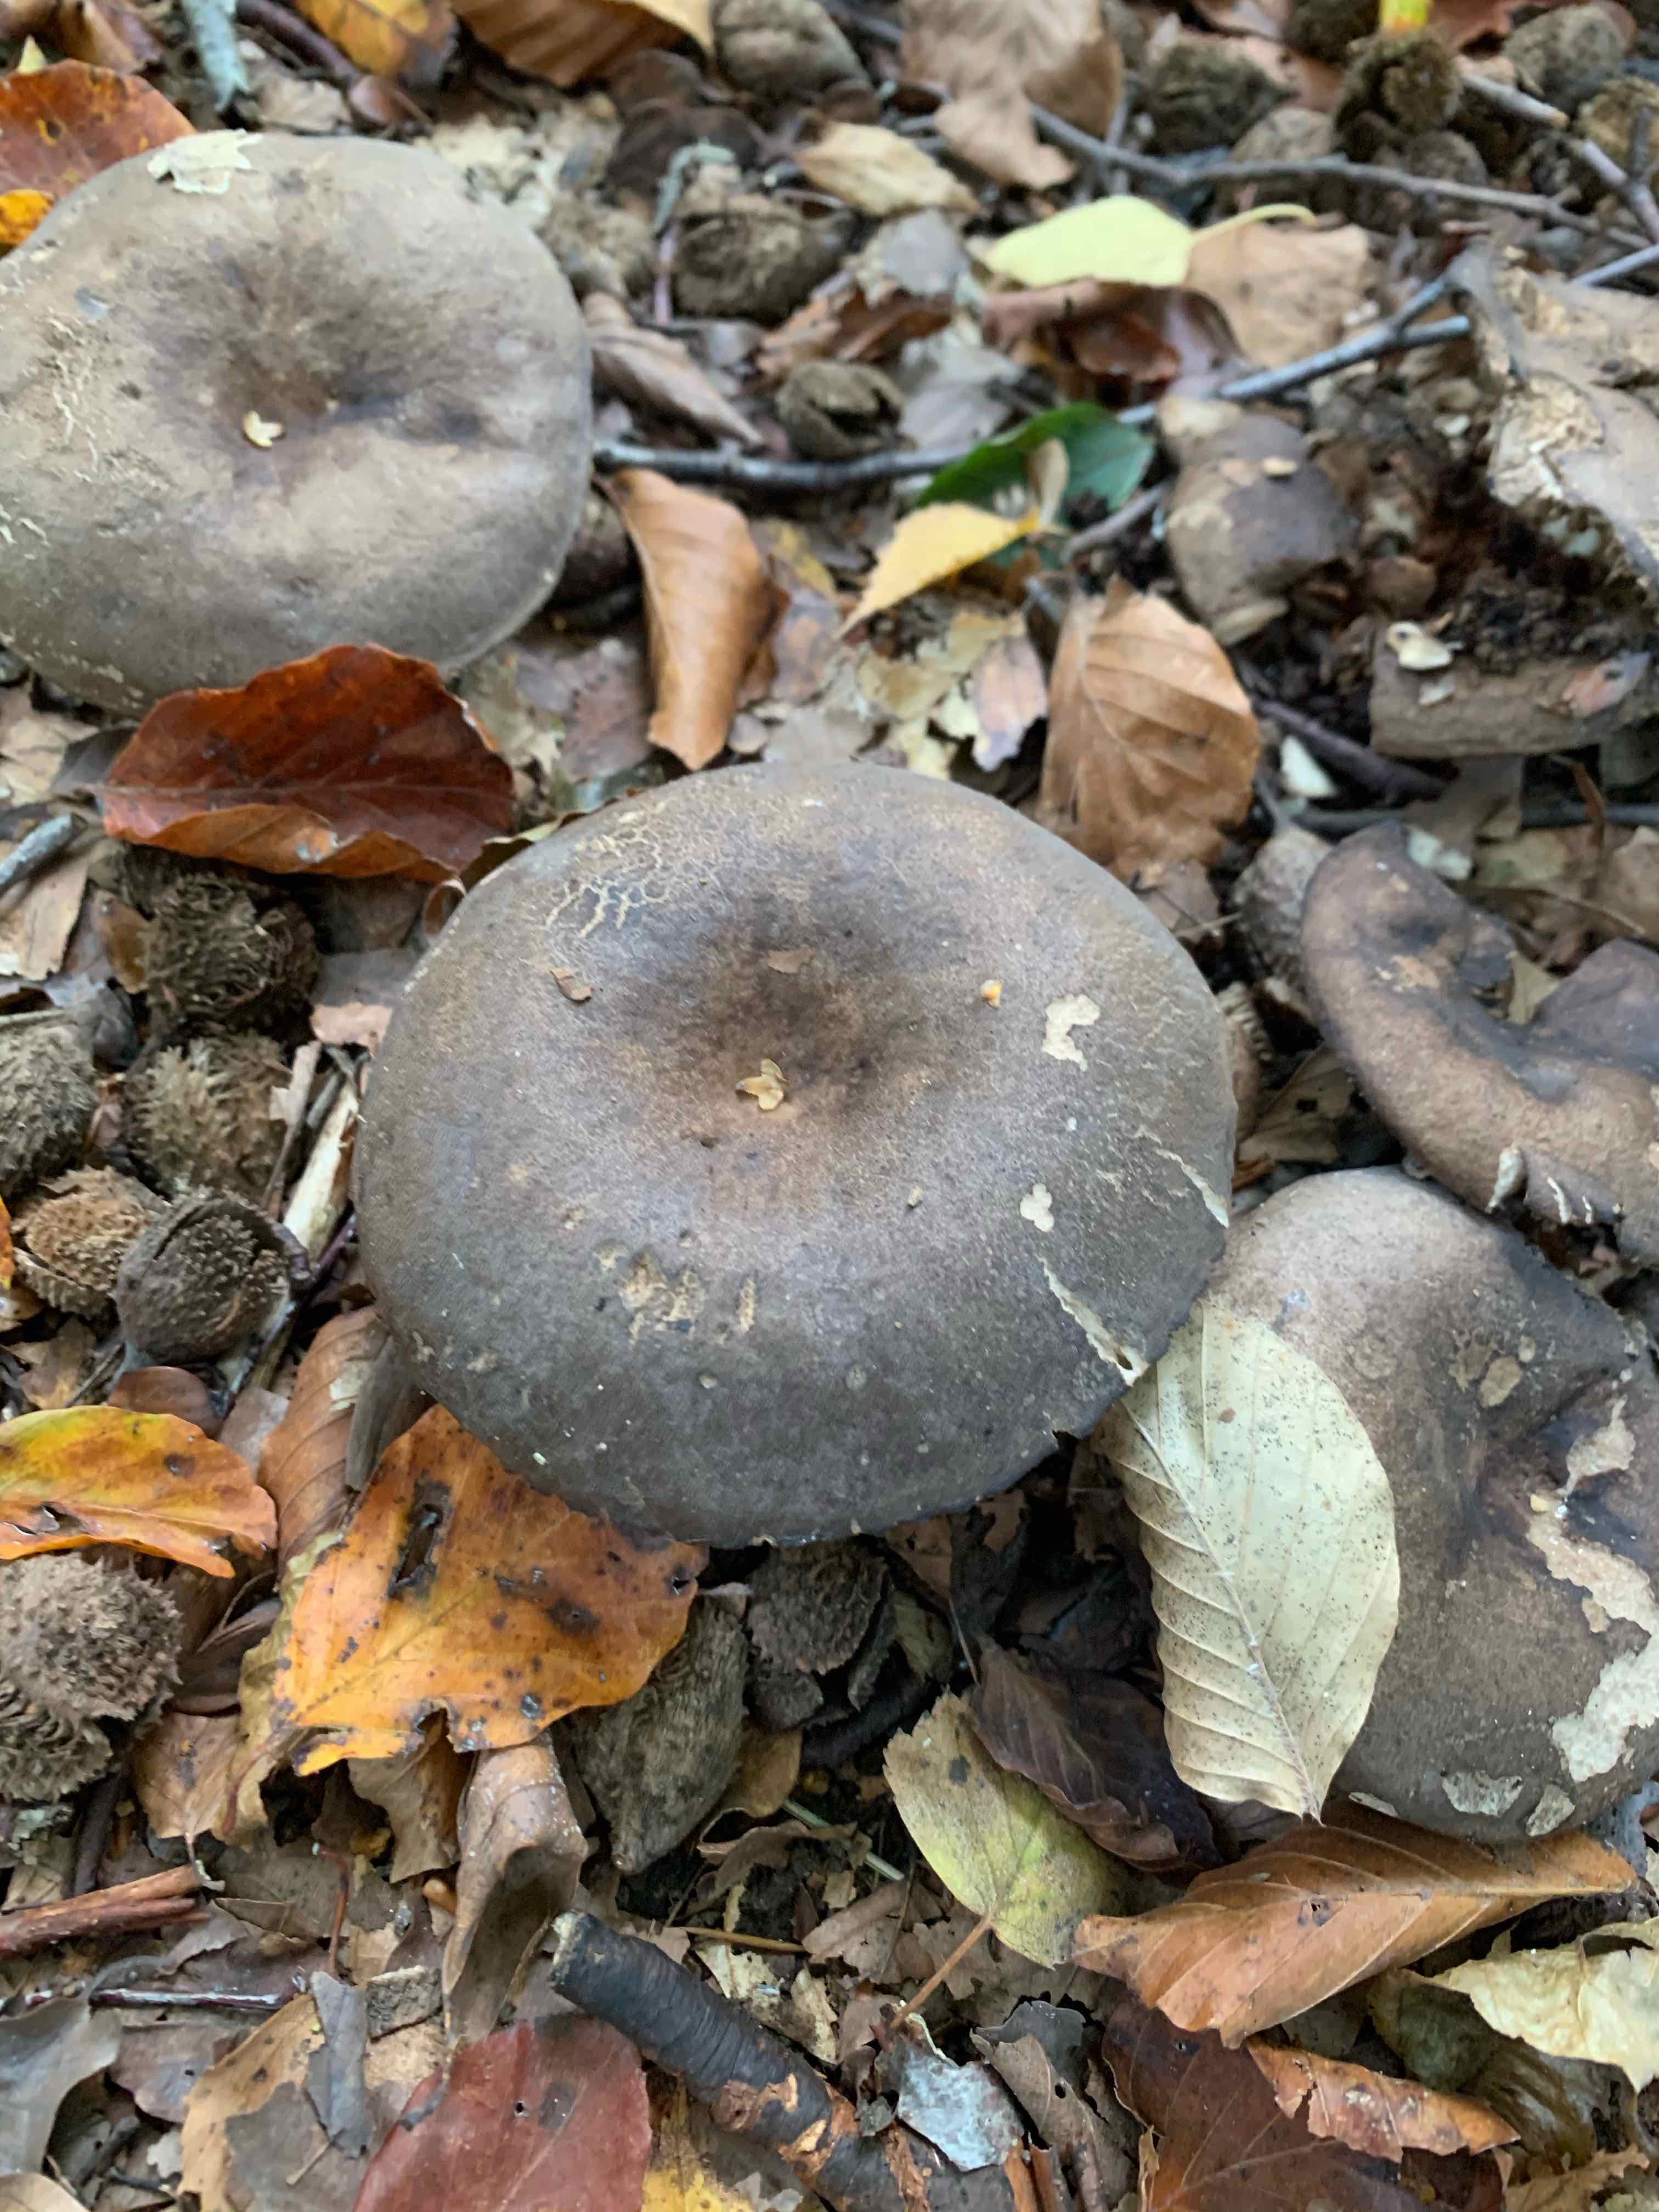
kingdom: Fungi
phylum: Basidiomycota
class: Agaricomycetes
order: Russulales
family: Russulaceae
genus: Russula
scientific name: Russula adusta
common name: sværtende skørhat
